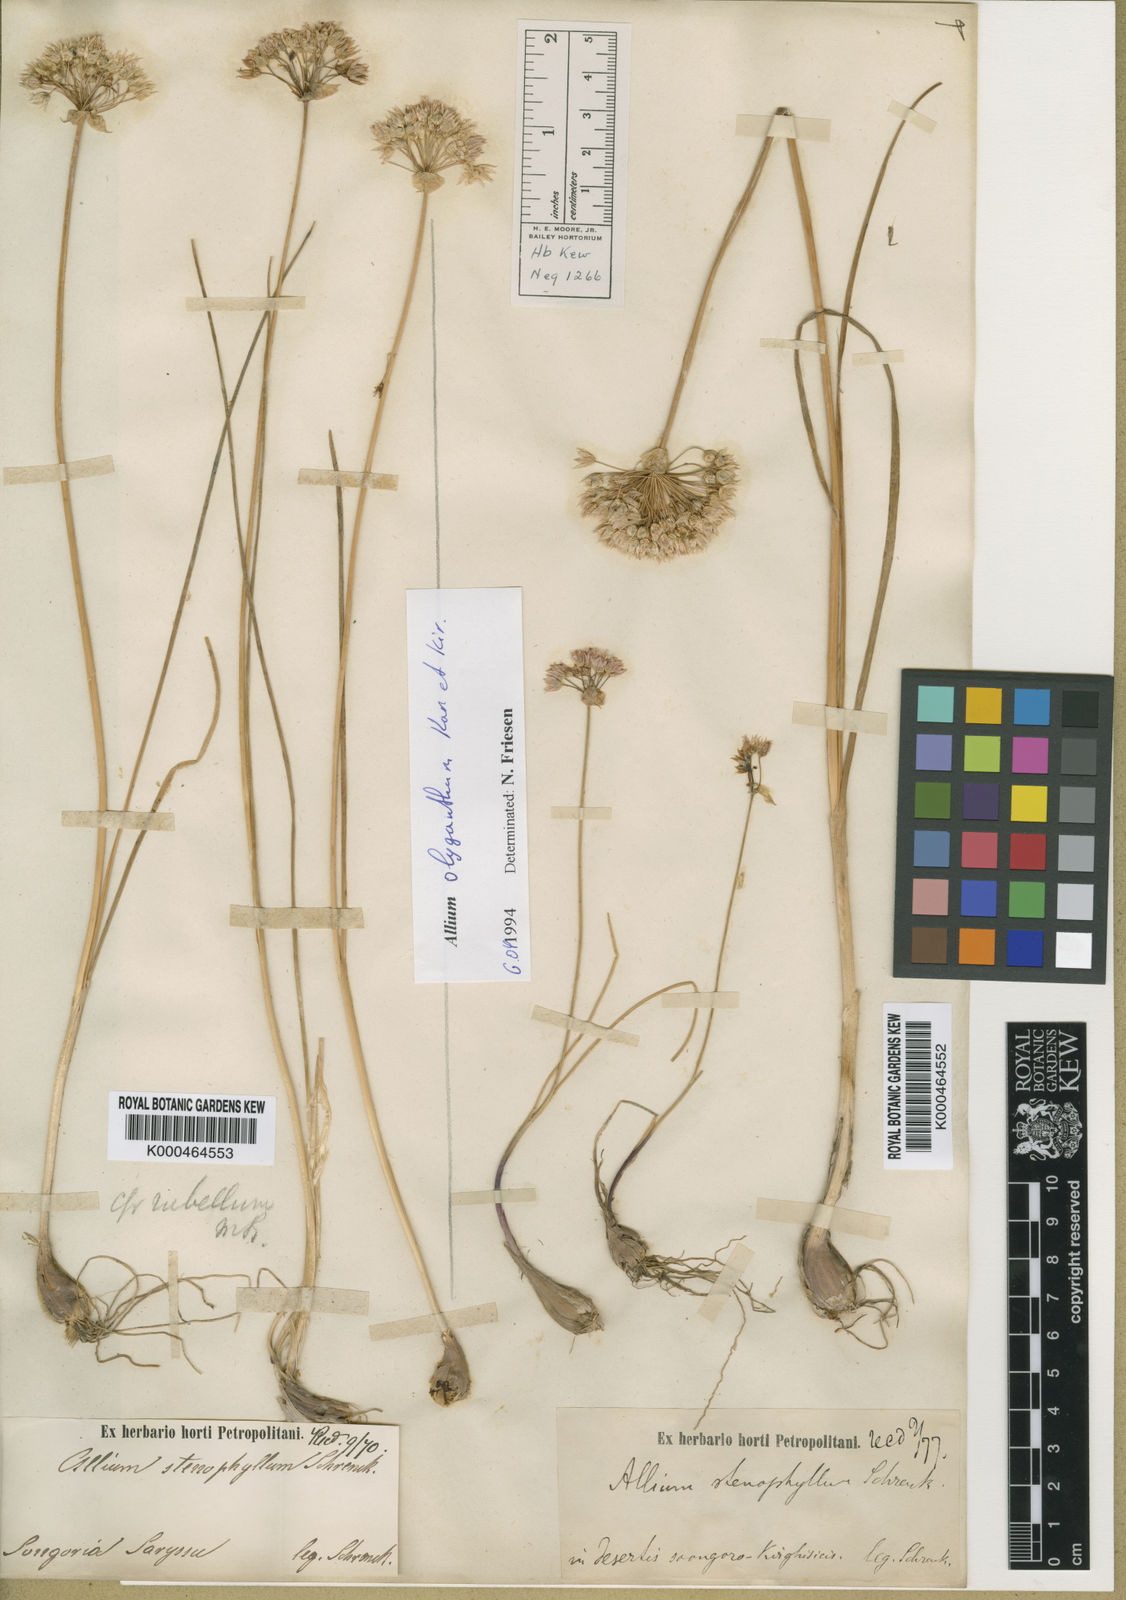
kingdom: Plantae
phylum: Tracheophyta
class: Liliopsida
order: Asparagales
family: Amaryllidaceae
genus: Allium
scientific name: Allium oliganthum
